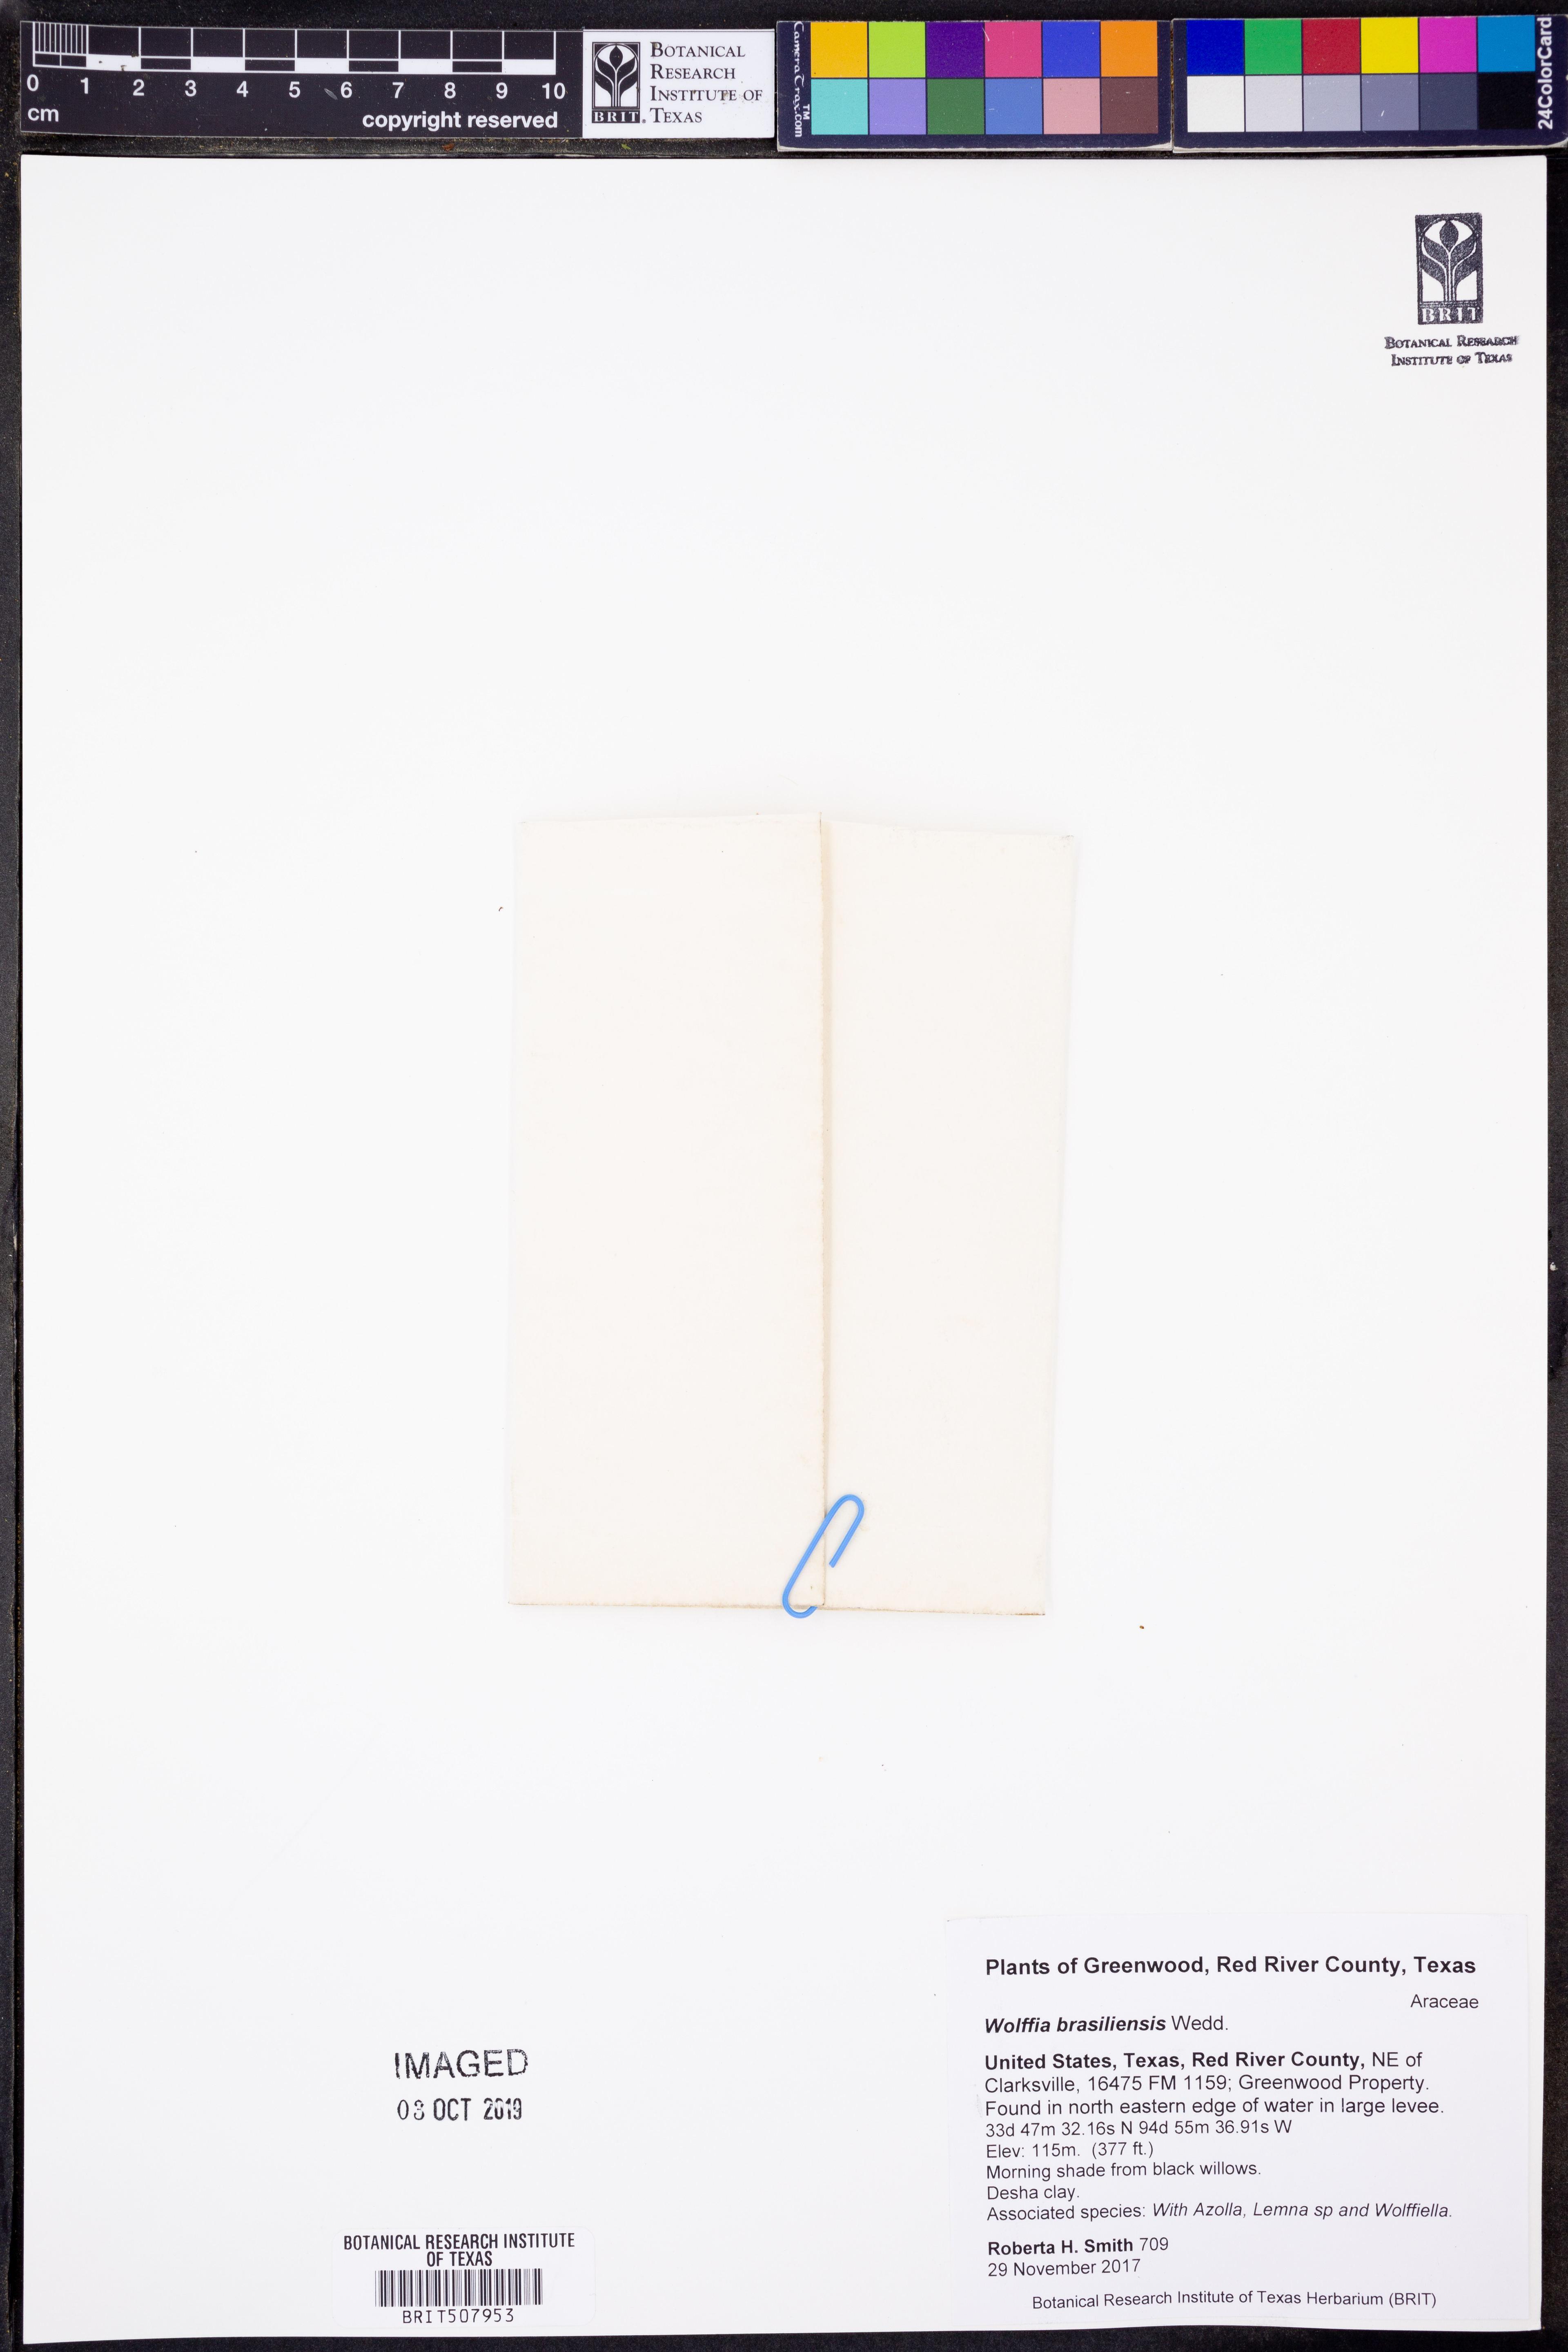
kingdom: Plantae
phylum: Tracheophyta
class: Liliopsida
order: Alismatales
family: Araceae
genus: Wolffia
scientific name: Wolffia brasiliensis
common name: Brazilian watermeal
